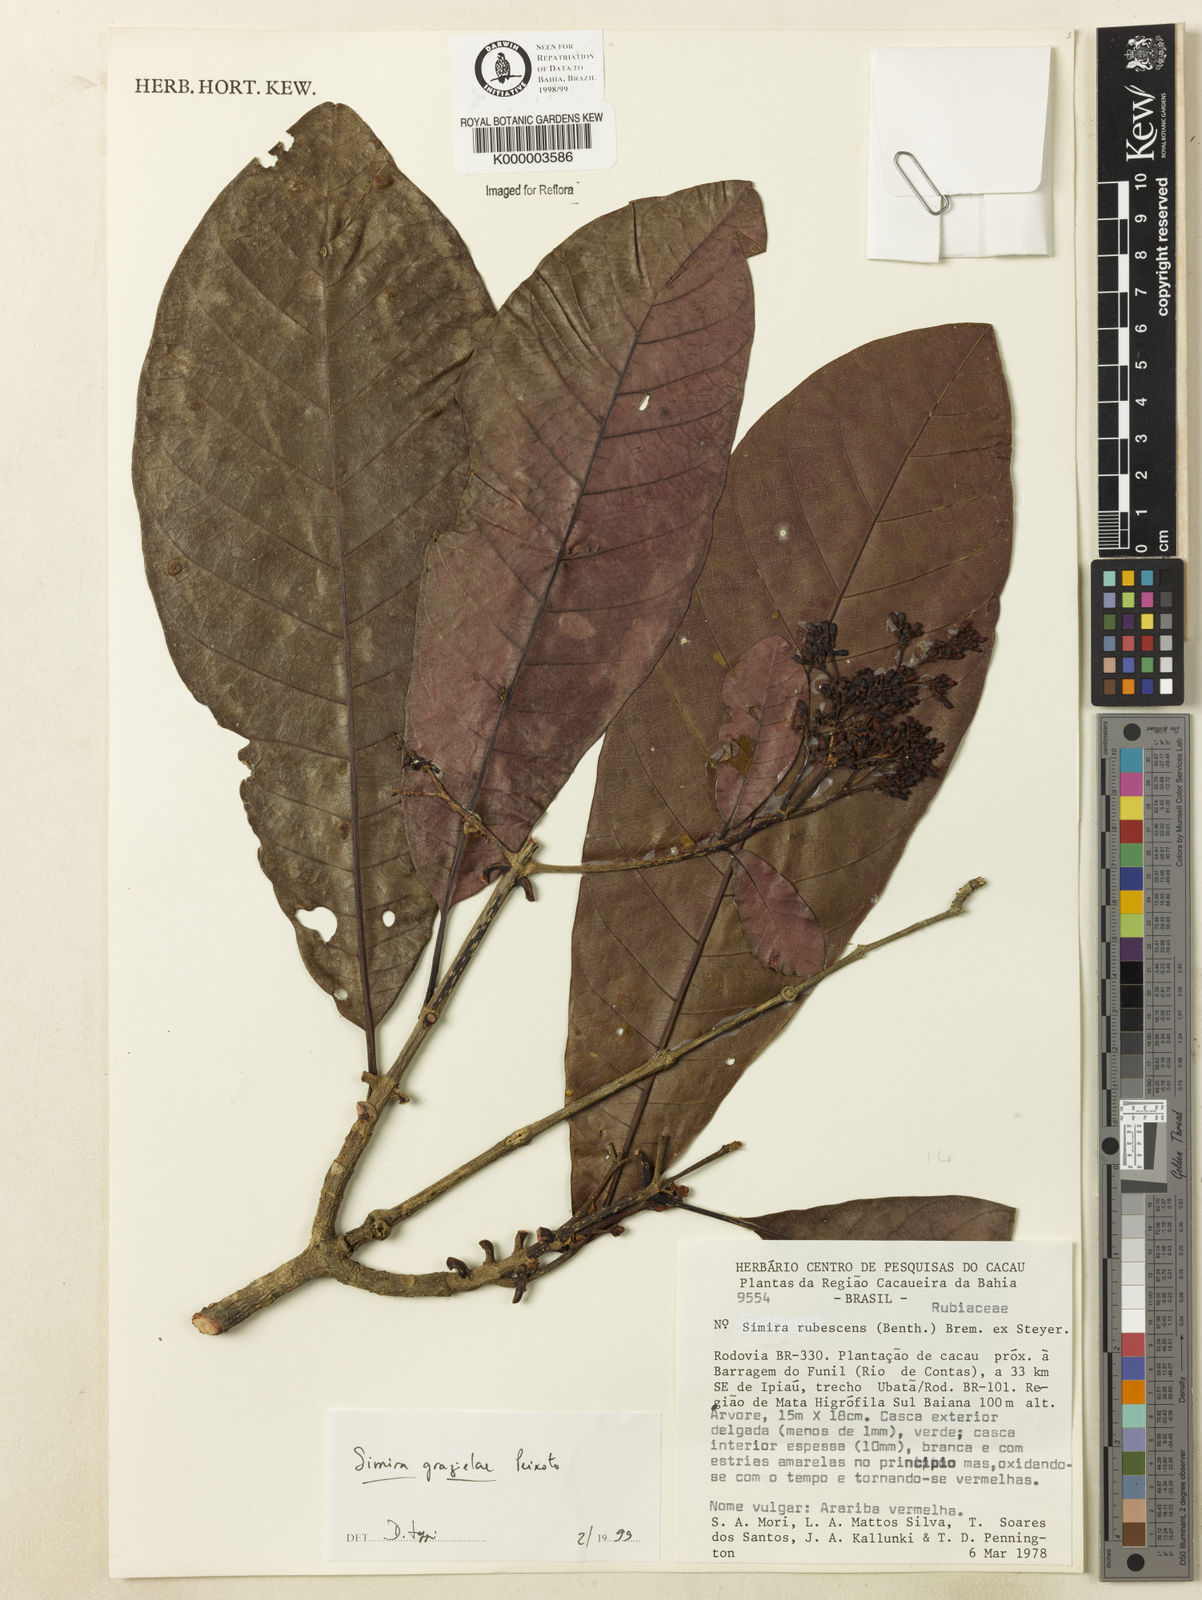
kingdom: Plantae
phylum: Tracheophyta
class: Magnoliopsida
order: Gentianales
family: Rubiaceae
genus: Simira
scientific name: Simira grazielae
